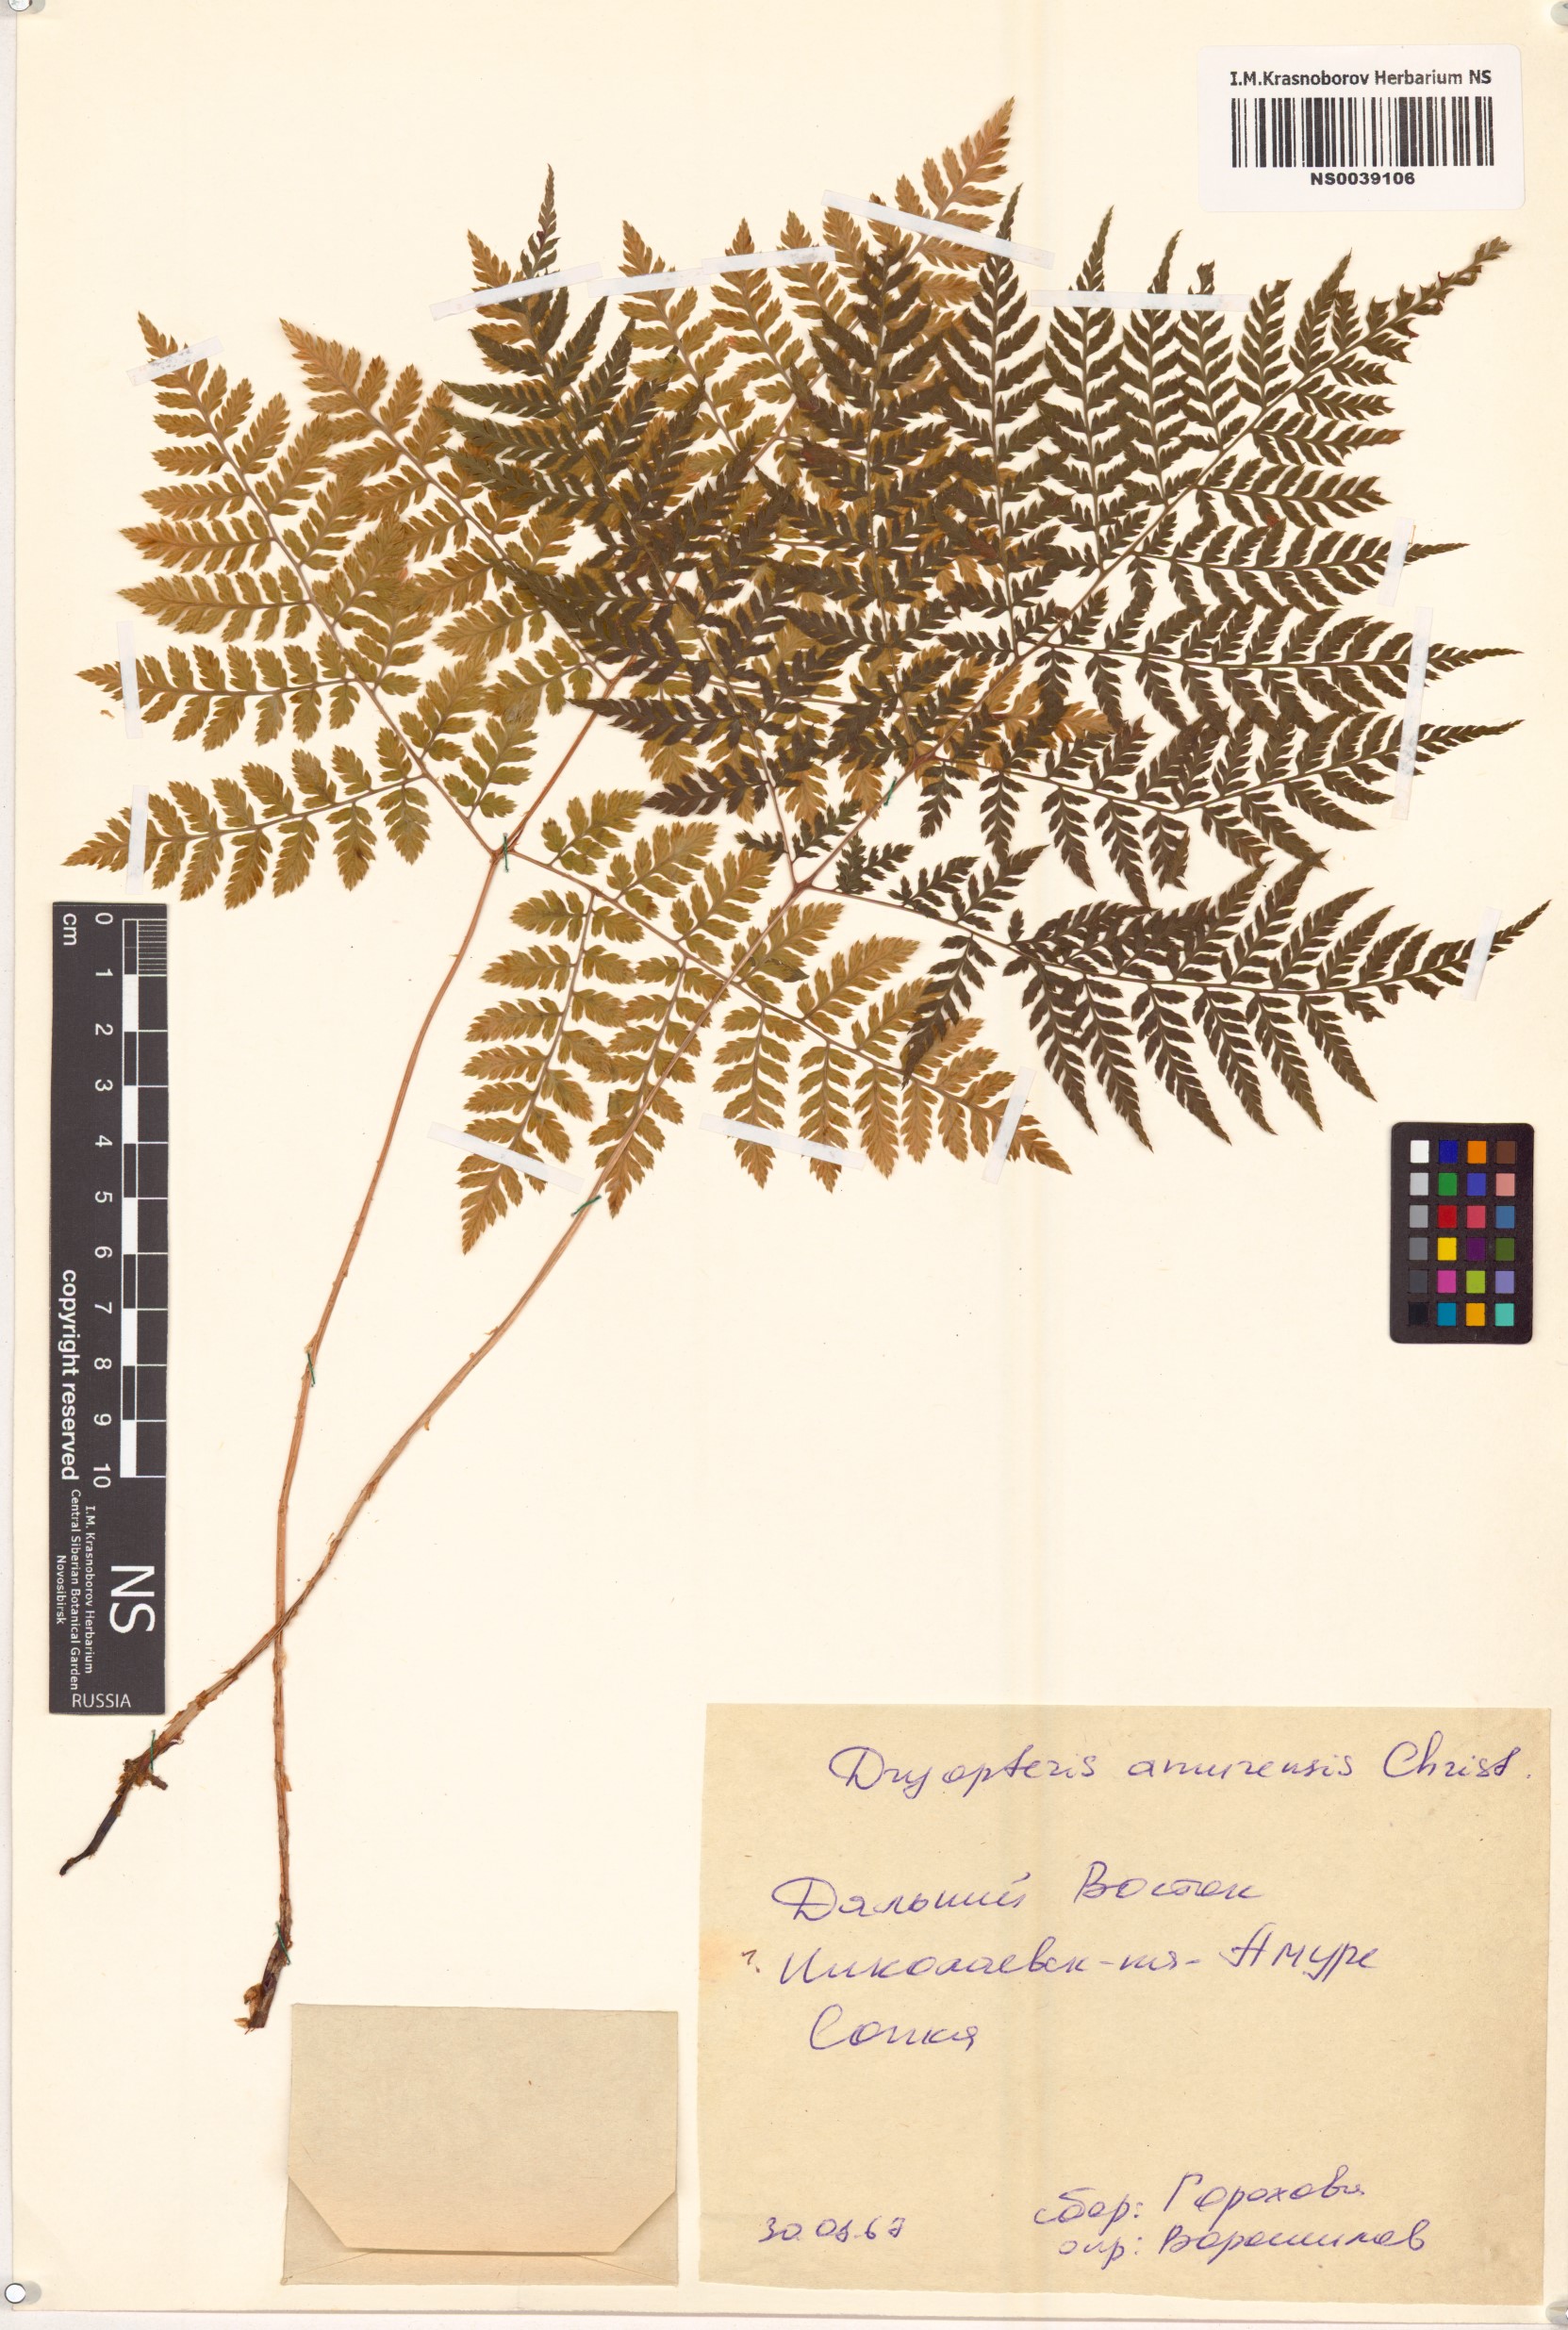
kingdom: Plantae
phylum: Tracheophyta
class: Polypodiopsida
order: Polypodiales
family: Dryopteridaceae
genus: Dryopteris
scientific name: Dryopteris amurensis
